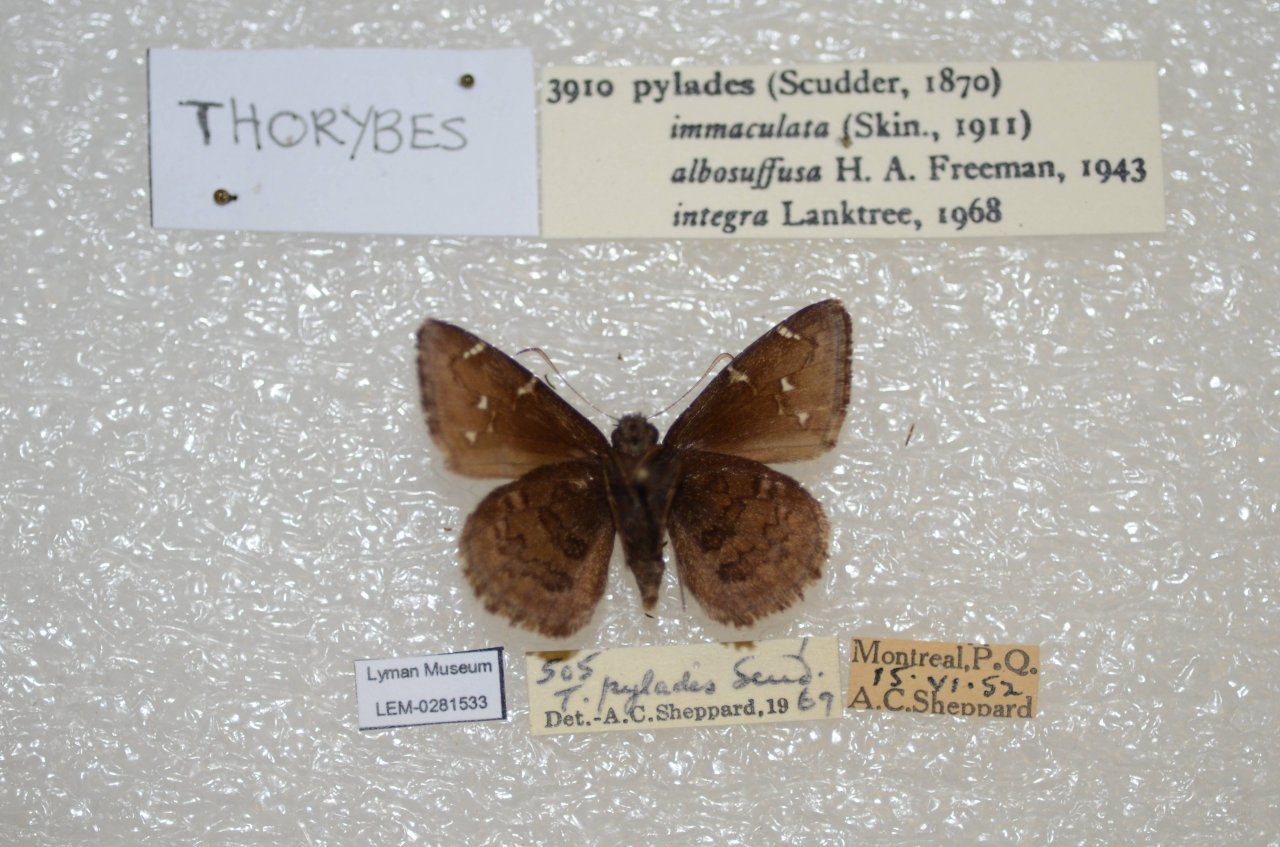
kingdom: Animalia
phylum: Arthropoda
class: Insecta
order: Lepidoptera
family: Hesperiidae
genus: Autochton
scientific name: Autochton
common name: Northern Cloudywing
